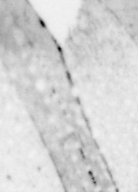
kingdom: Animalia
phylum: Chordata
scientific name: Chordata
